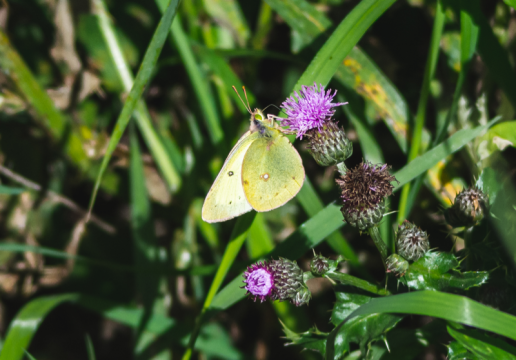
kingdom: Animalia
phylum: Arthropoda
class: Insecta
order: Lepidoptera
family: Pieridae
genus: Colias
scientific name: Colias philodice
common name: Clouded Sulphur
